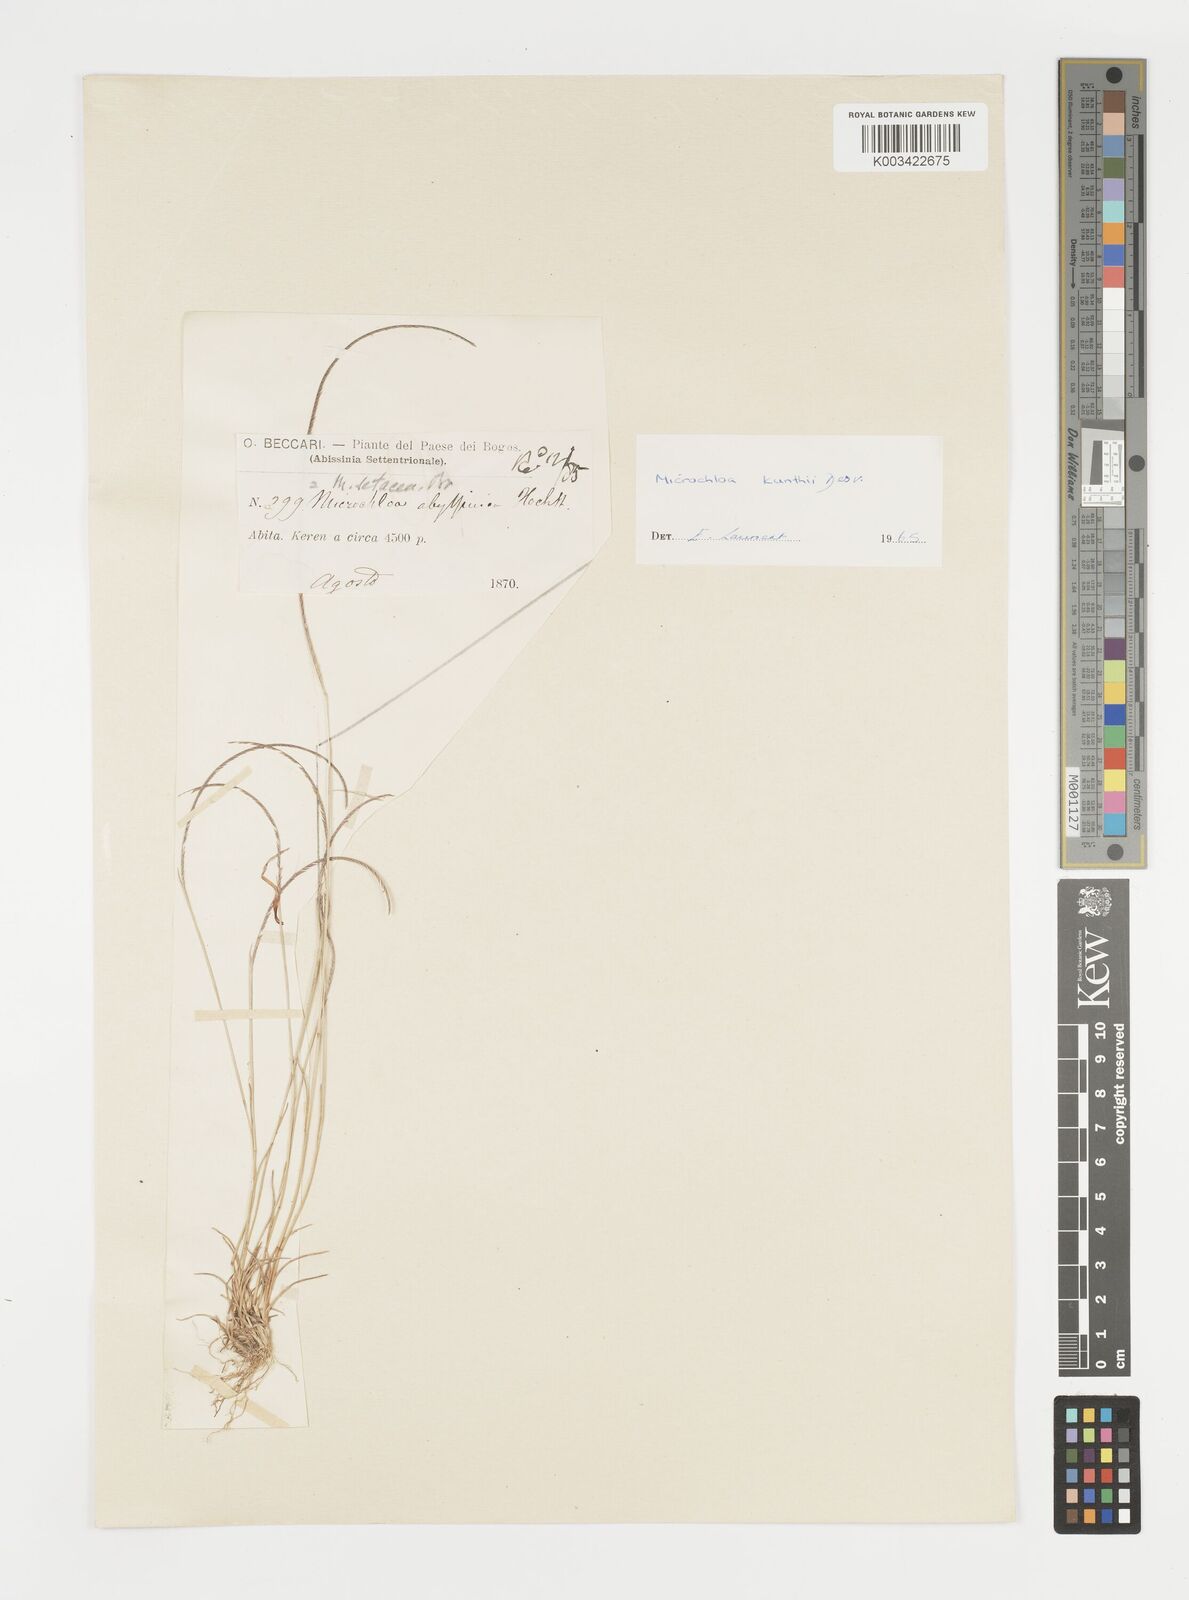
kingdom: Plantae
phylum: Tracheophyta
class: Liliopsida
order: Poales
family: Poaceae
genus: Microchloa
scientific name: Microchloa kunthii
